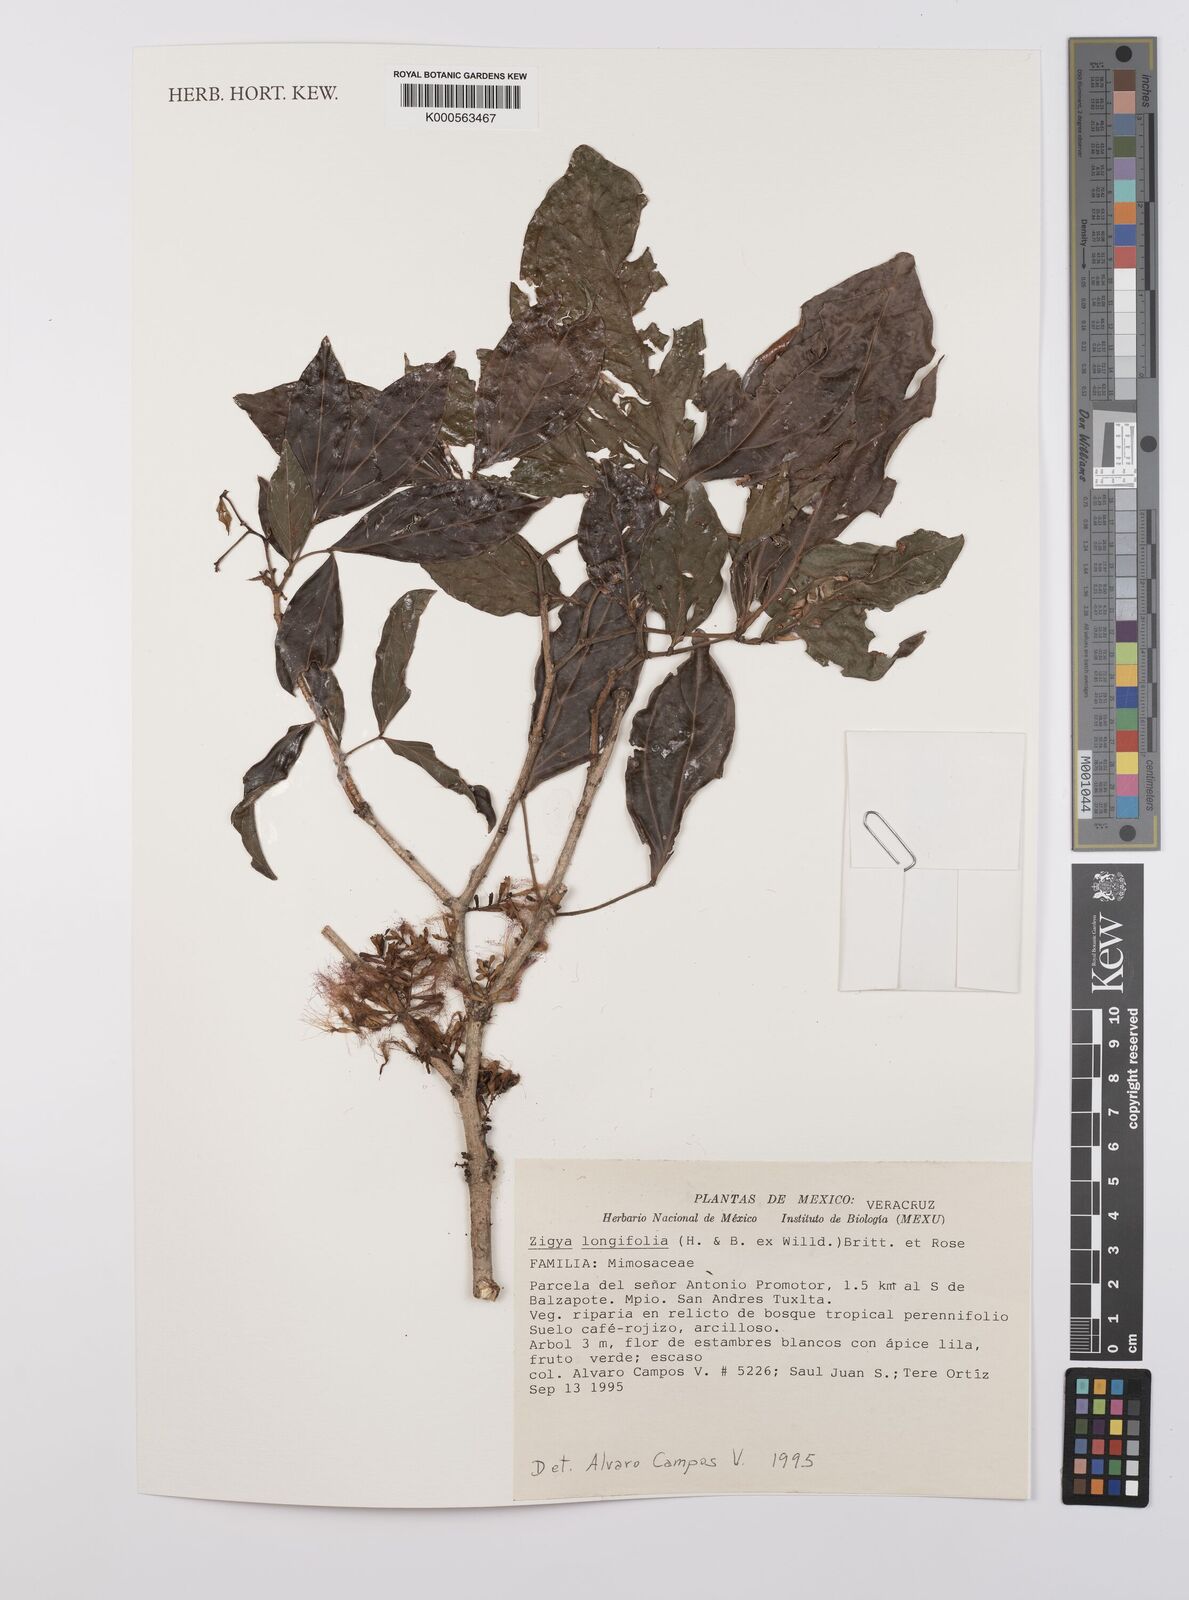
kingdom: Plantae
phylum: Tracheophyta
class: Magnoliopsida
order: Fabales
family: Fabaceae
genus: Zygia
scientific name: Zygia longifolia
